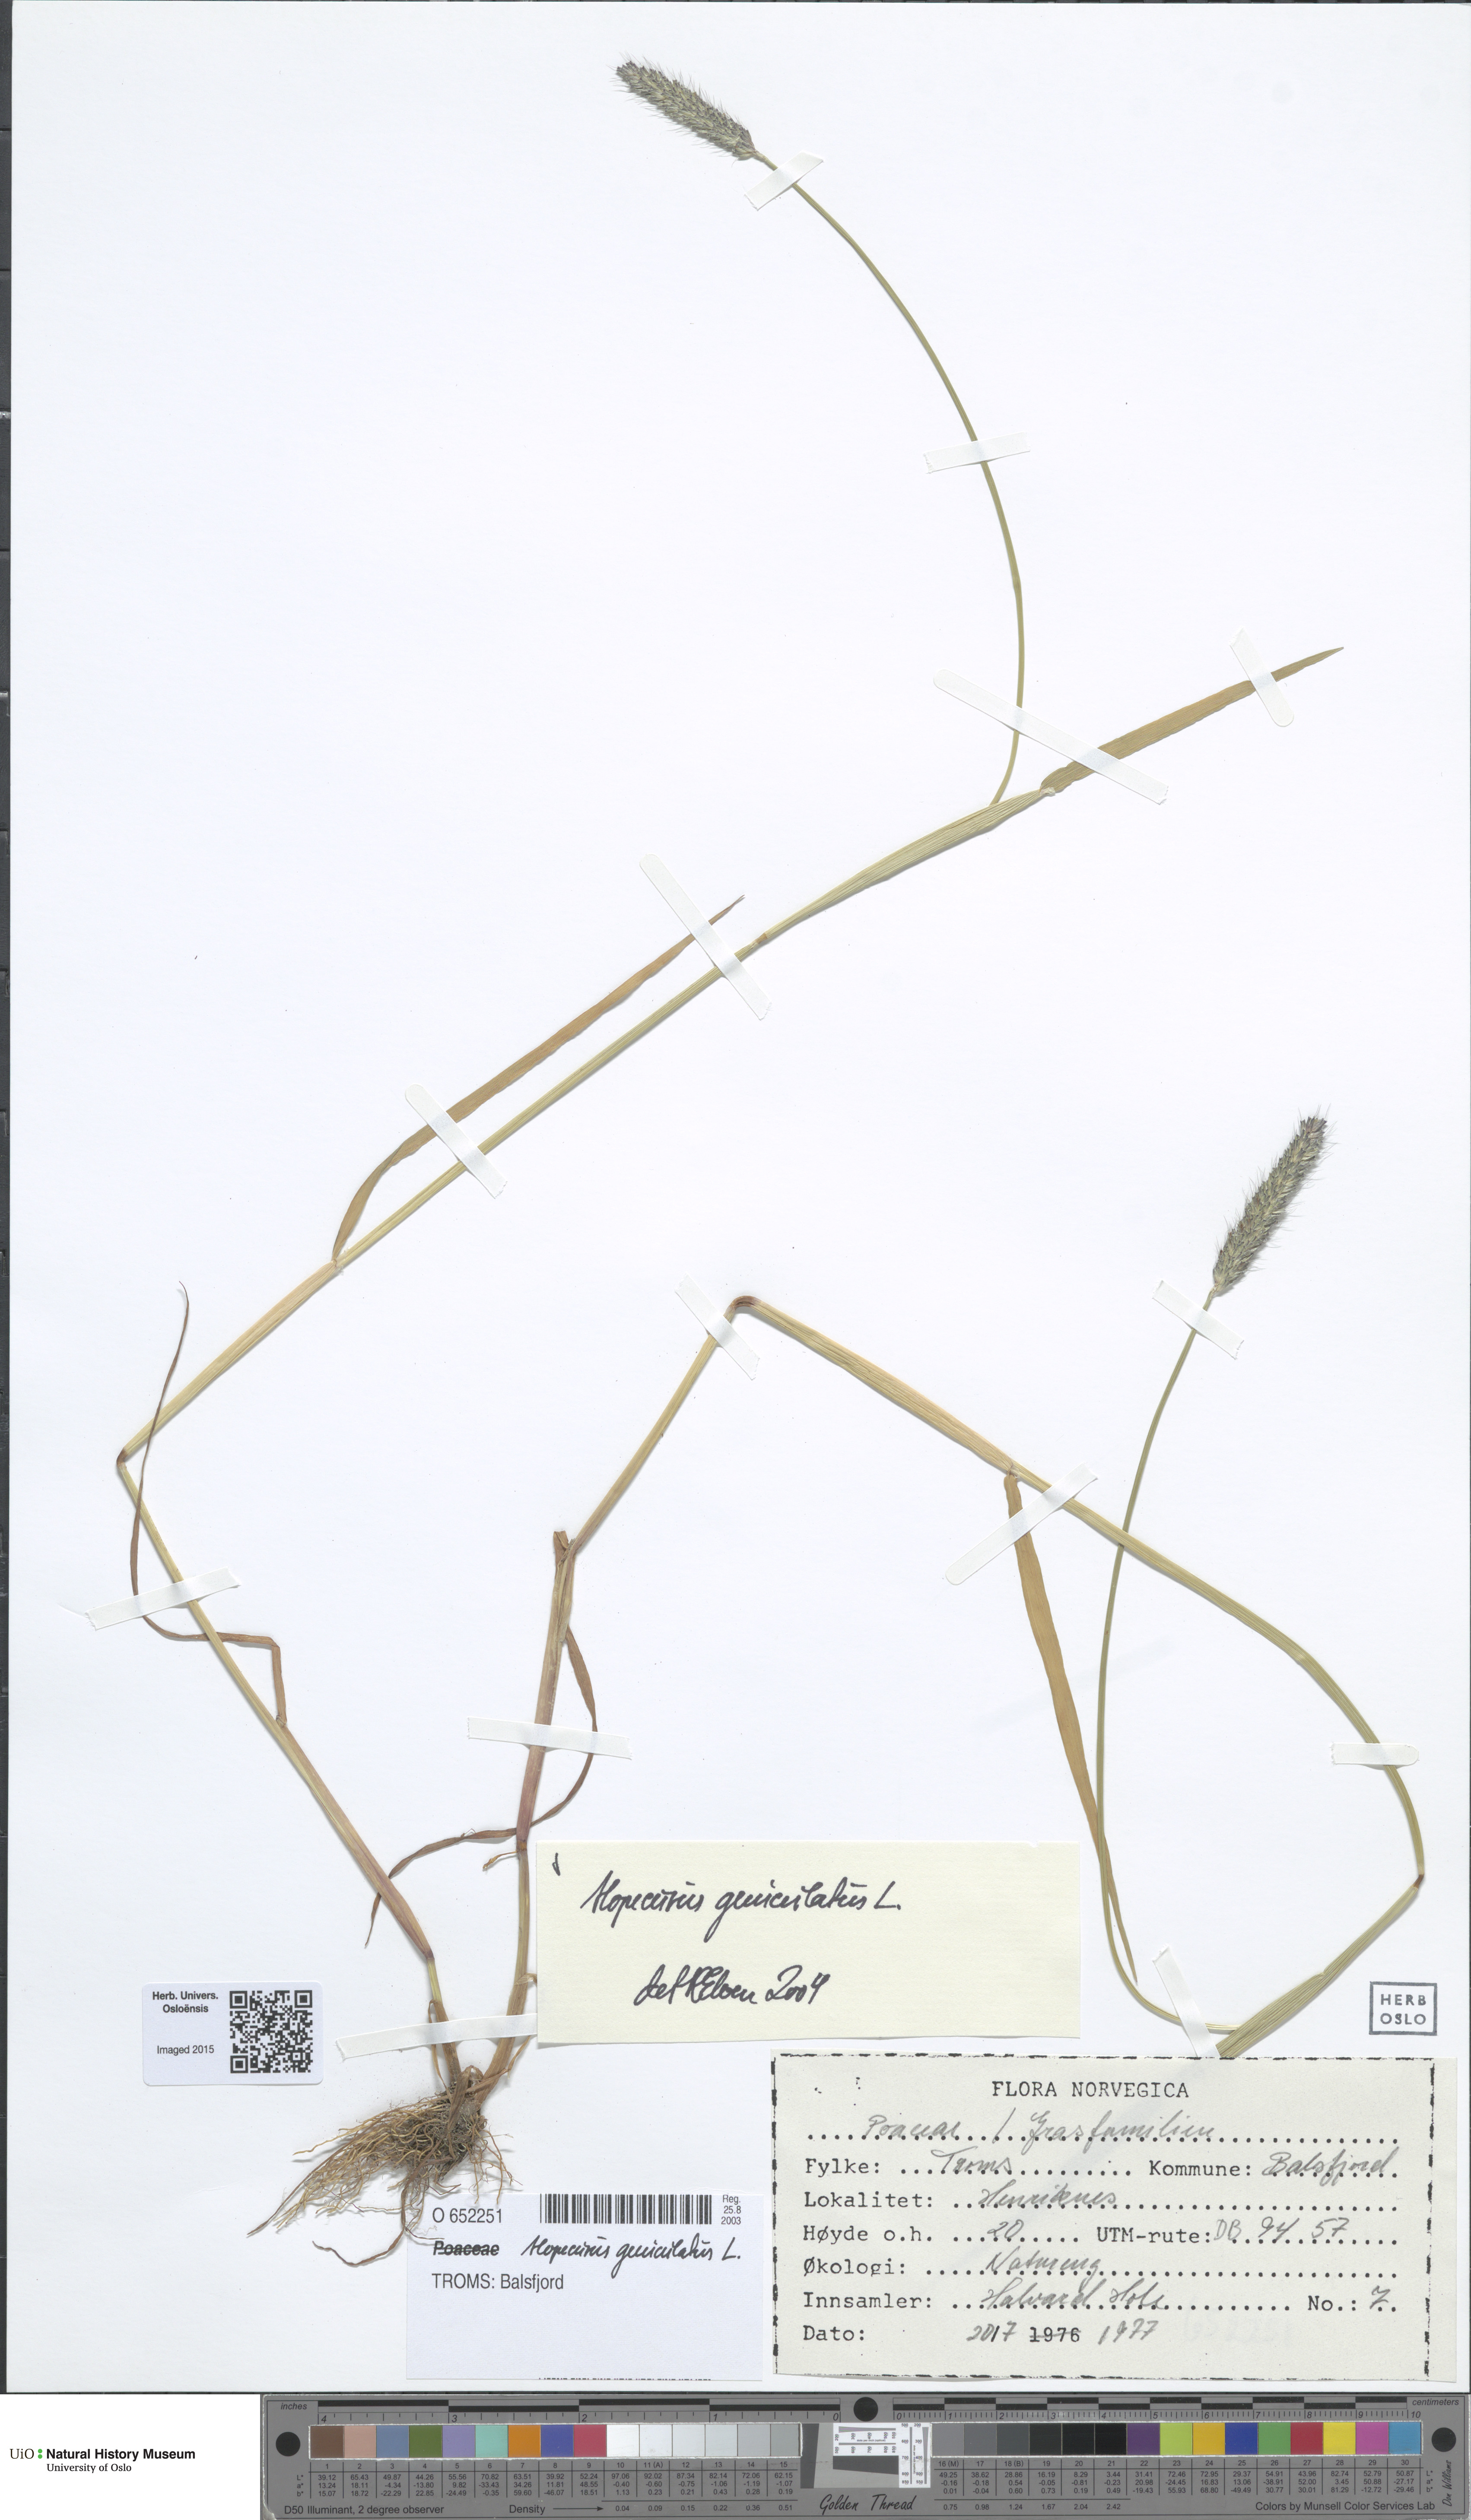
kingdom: Plantae
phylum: Tracheophyta
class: Liliopsida
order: Poales
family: Poaceae
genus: Alopecurus
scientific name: Alopecurus geniculatus
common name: Water foxtail
